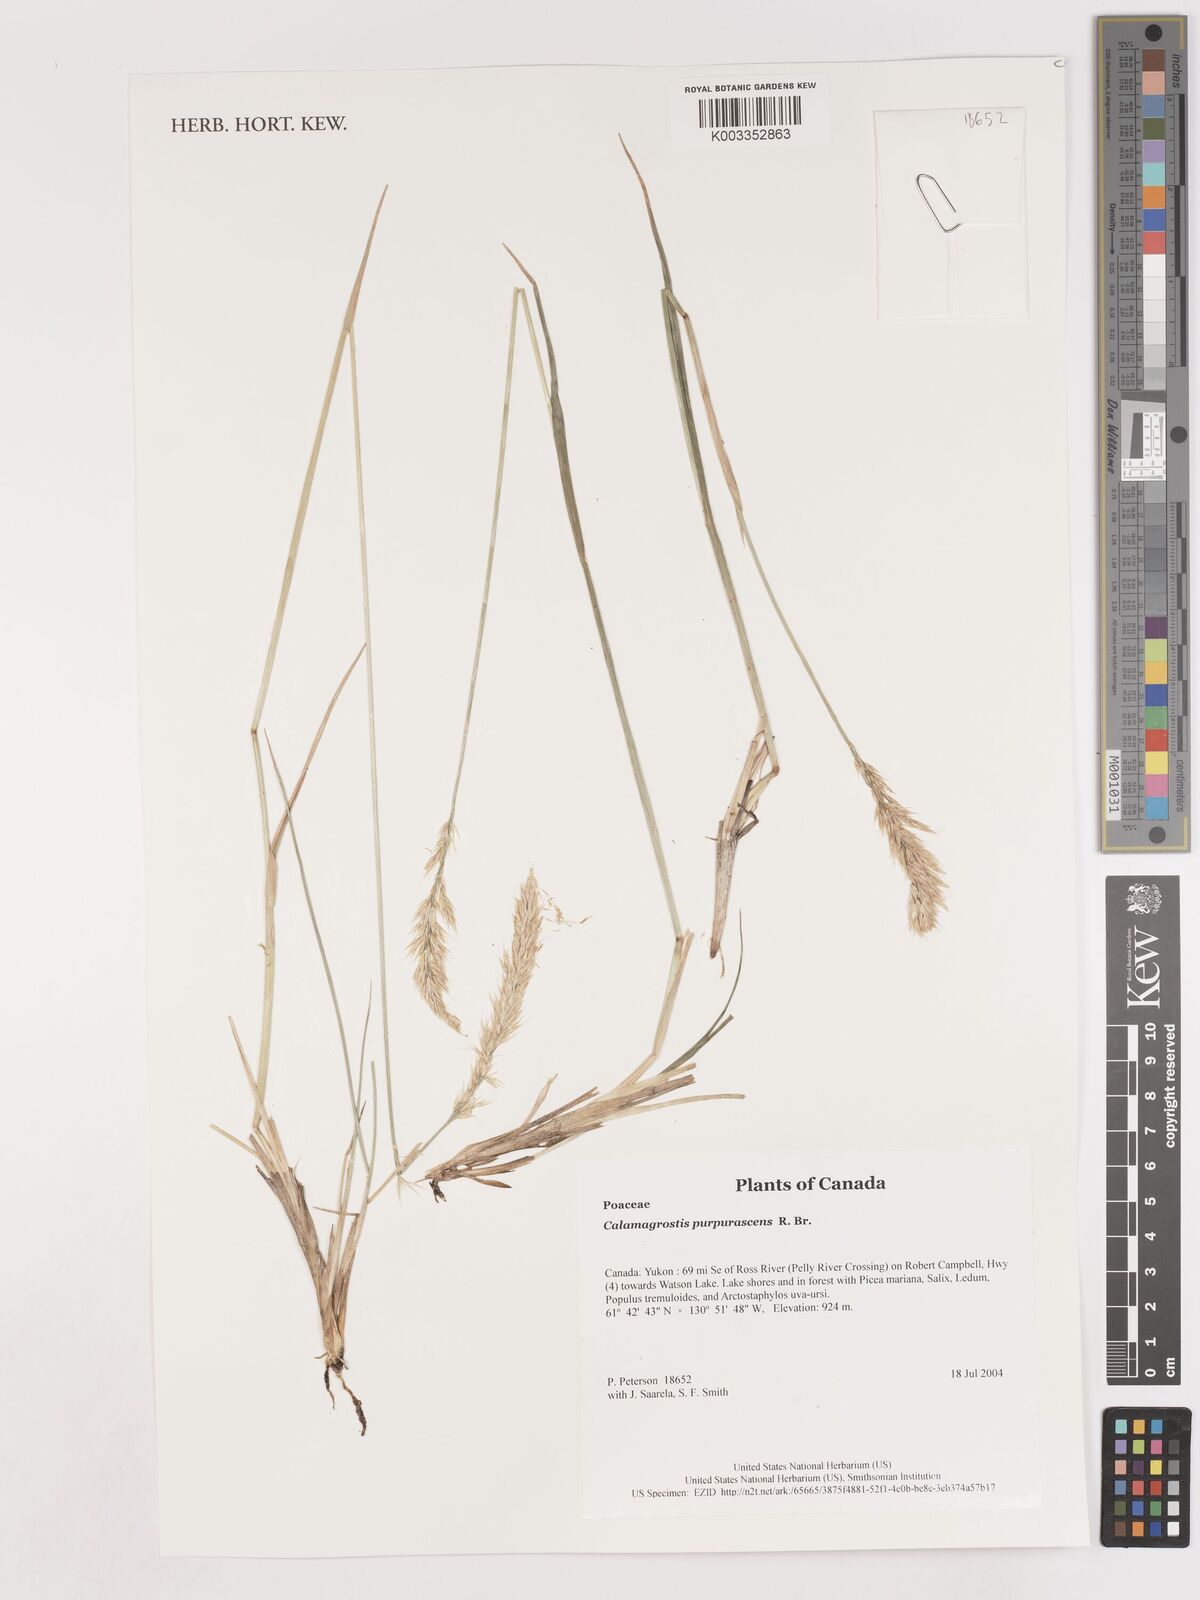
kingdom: Plantae
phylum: Tracheophyta
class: Liliopsida
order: Poales
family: Poaceae
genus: Calamagrostis
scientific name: Calamagrostis purpurascens
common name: Purple reedgrass
